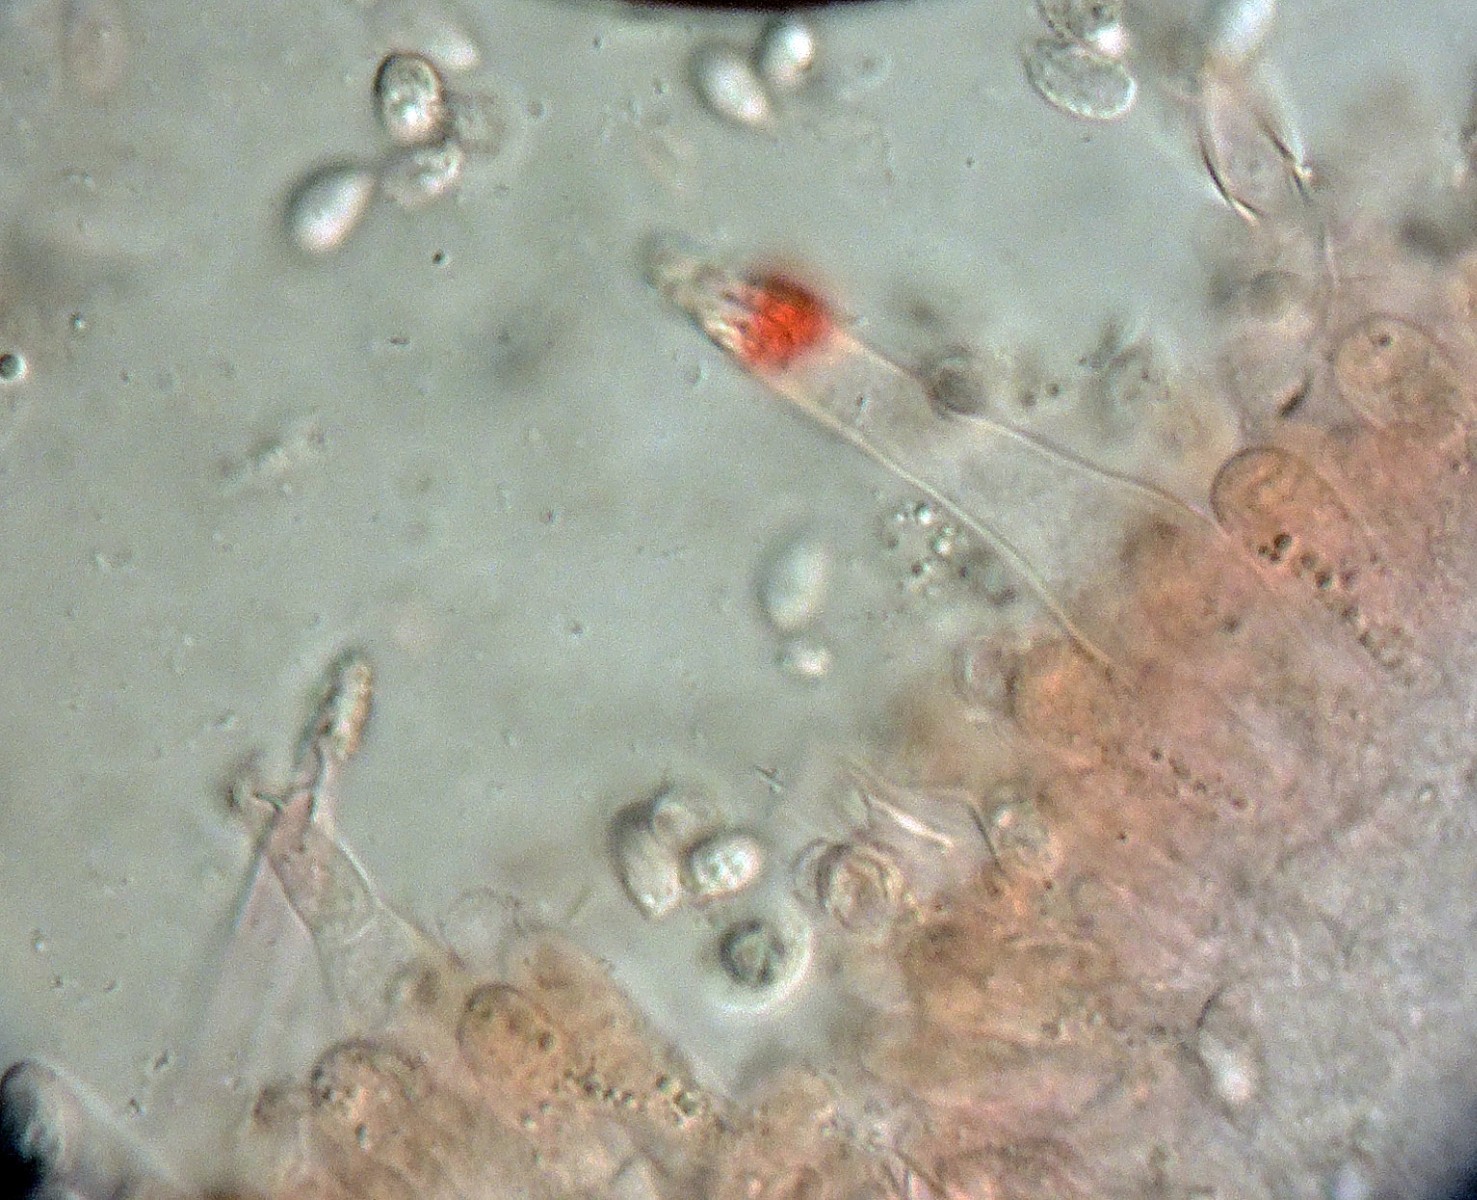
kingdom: Fungi
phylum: Basidiomycota
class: Agaricomycetes
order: Agaricales
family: Tricholomataceae
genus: Melanoleuca
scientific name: Melanoleuca bataillei
